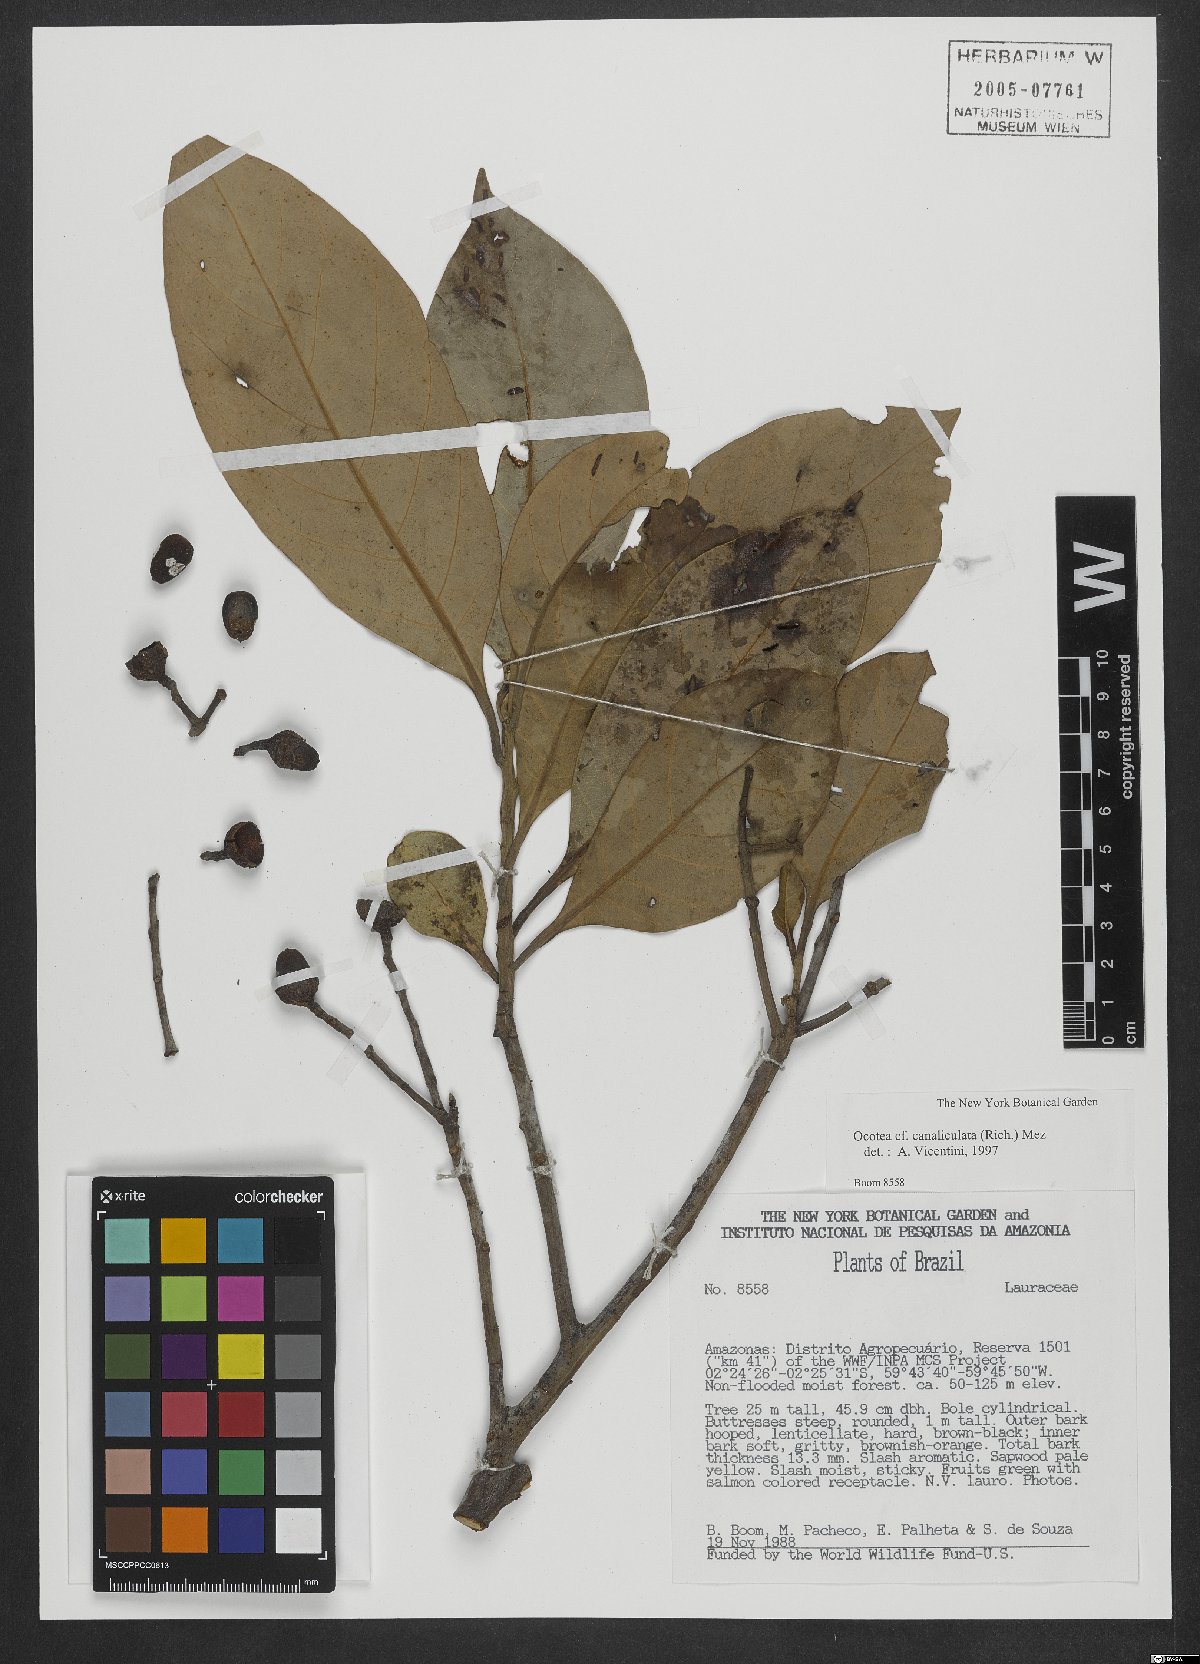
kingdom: Plantae
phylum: Tracheophyta
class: Magnoliopsida
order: Laurales
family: Lauraceae
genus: Ocotea
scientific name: Ocotea canaliculata
